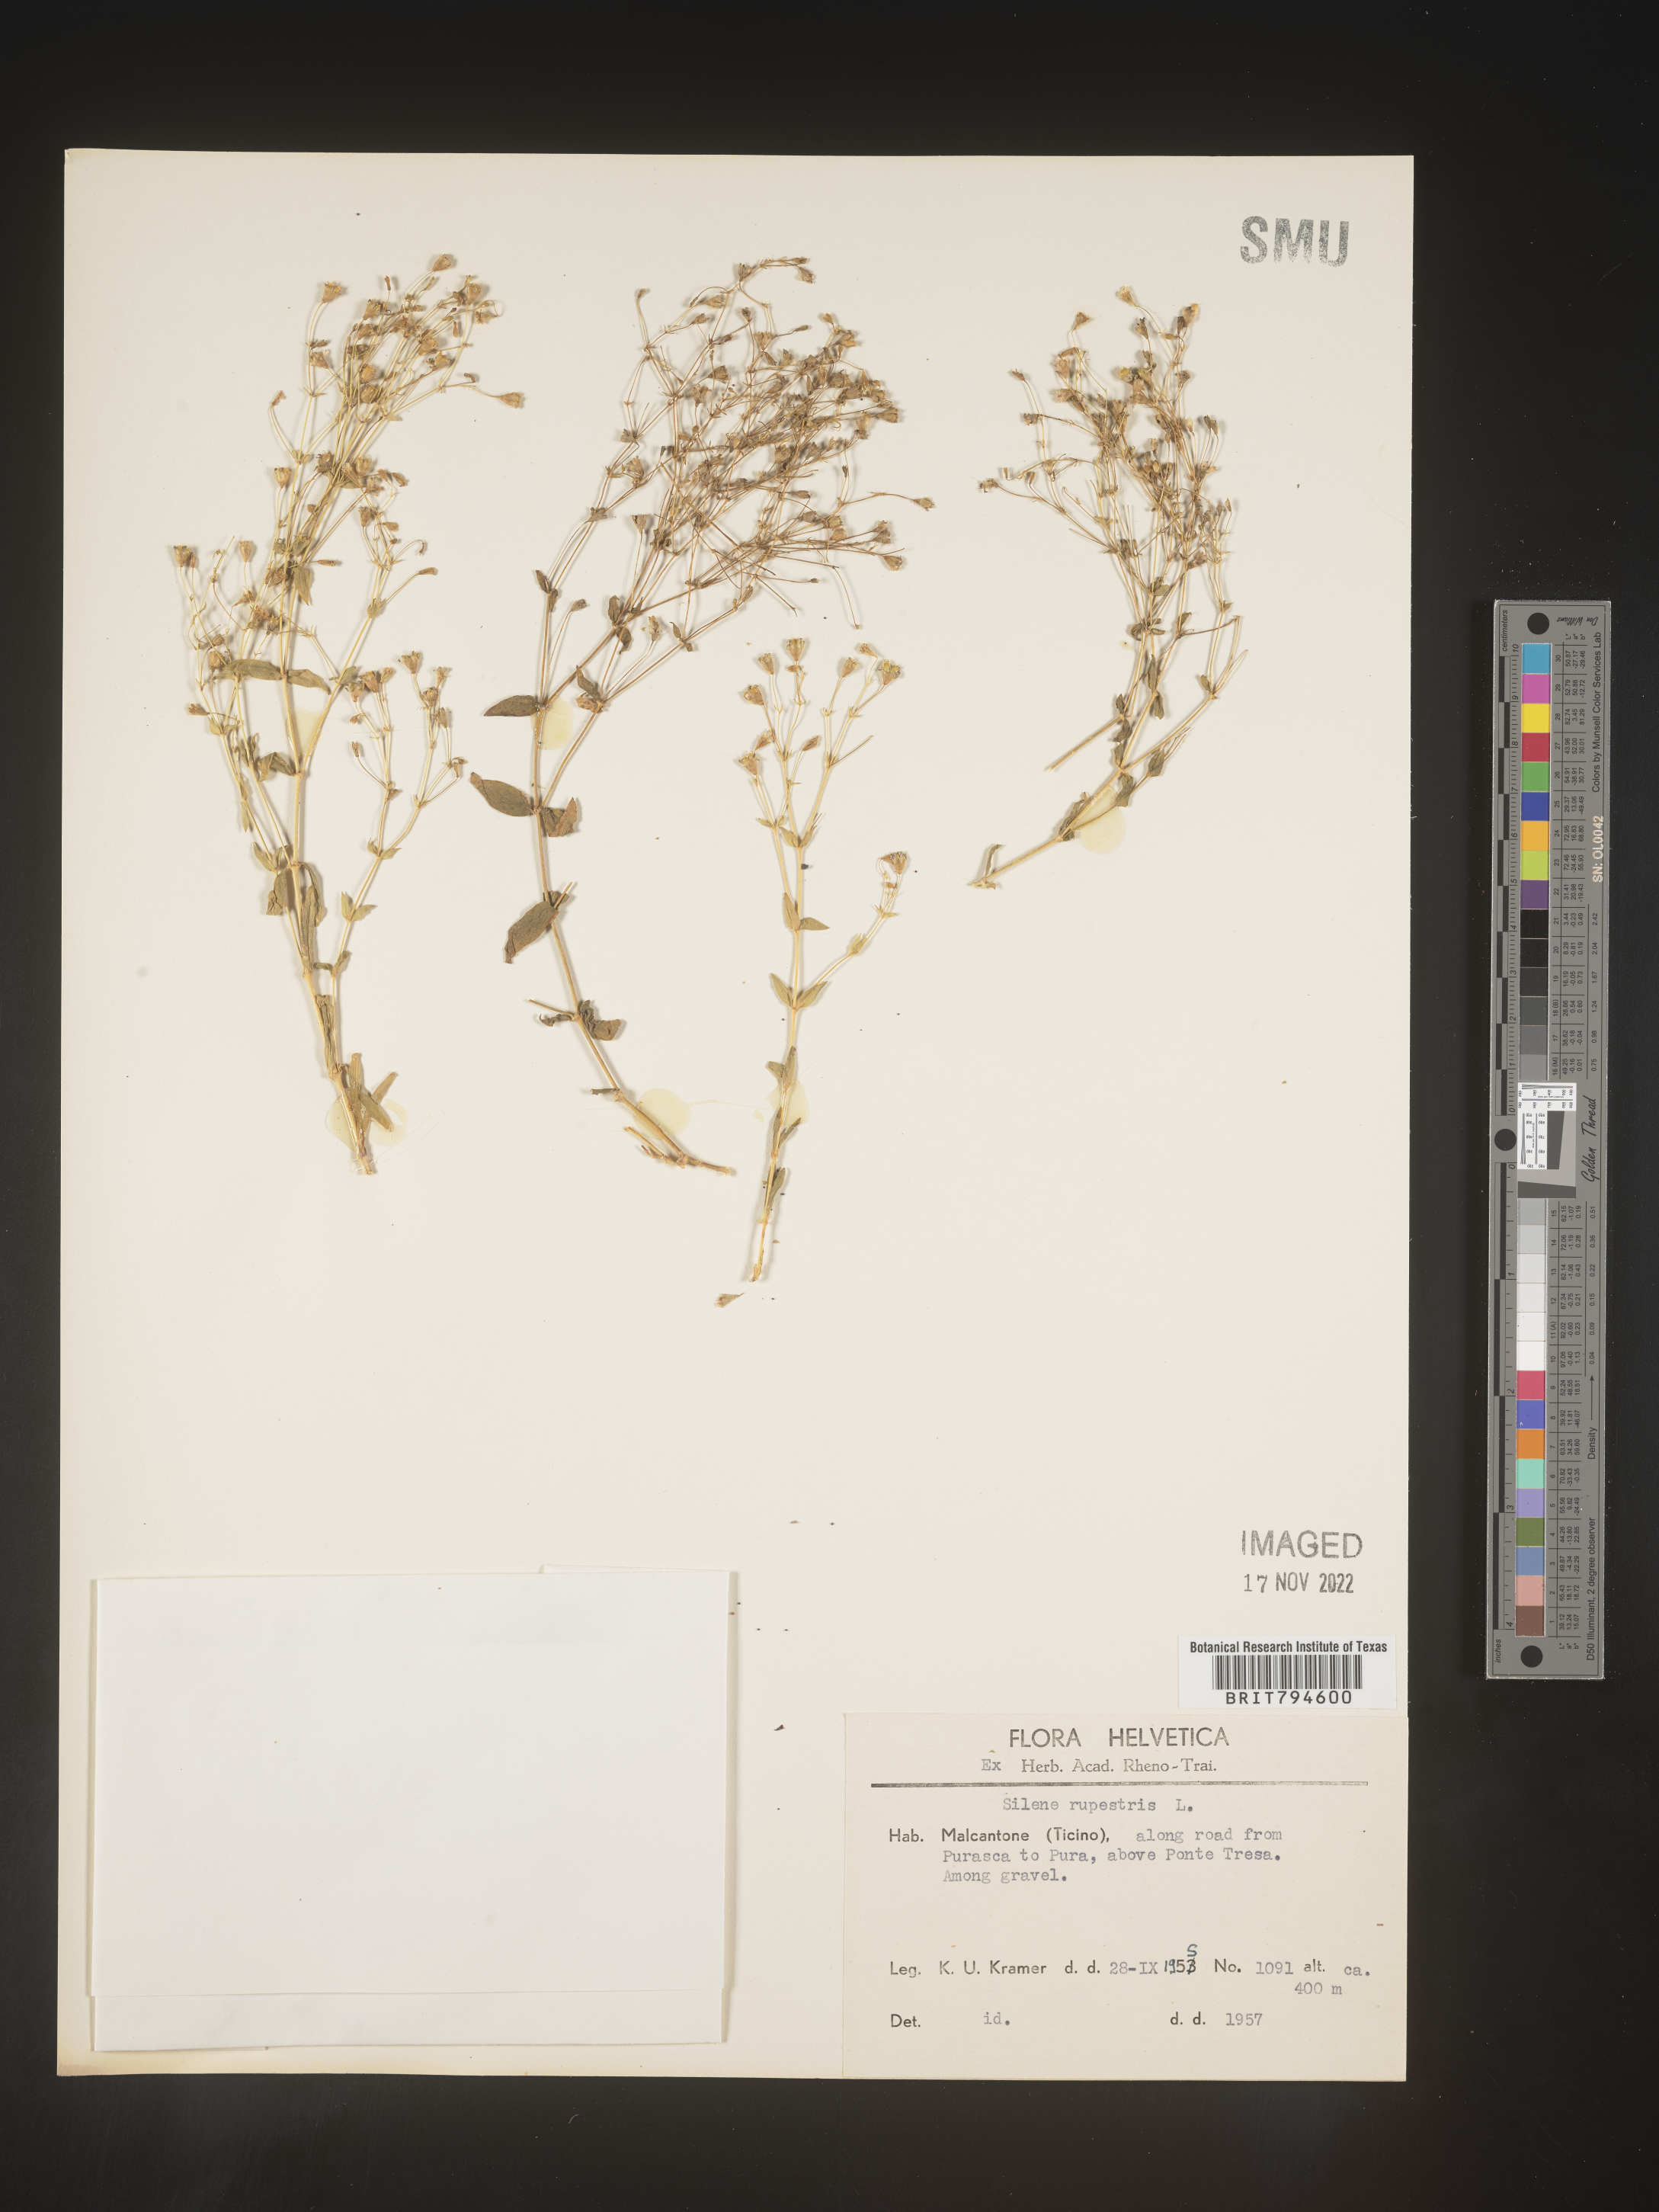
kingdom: Plantae
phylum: Tracheophyta
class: Magnoliopsida
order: Caryophyllales
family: Caryophyllaceae
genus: Atocion
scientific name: Atocion rupestre
